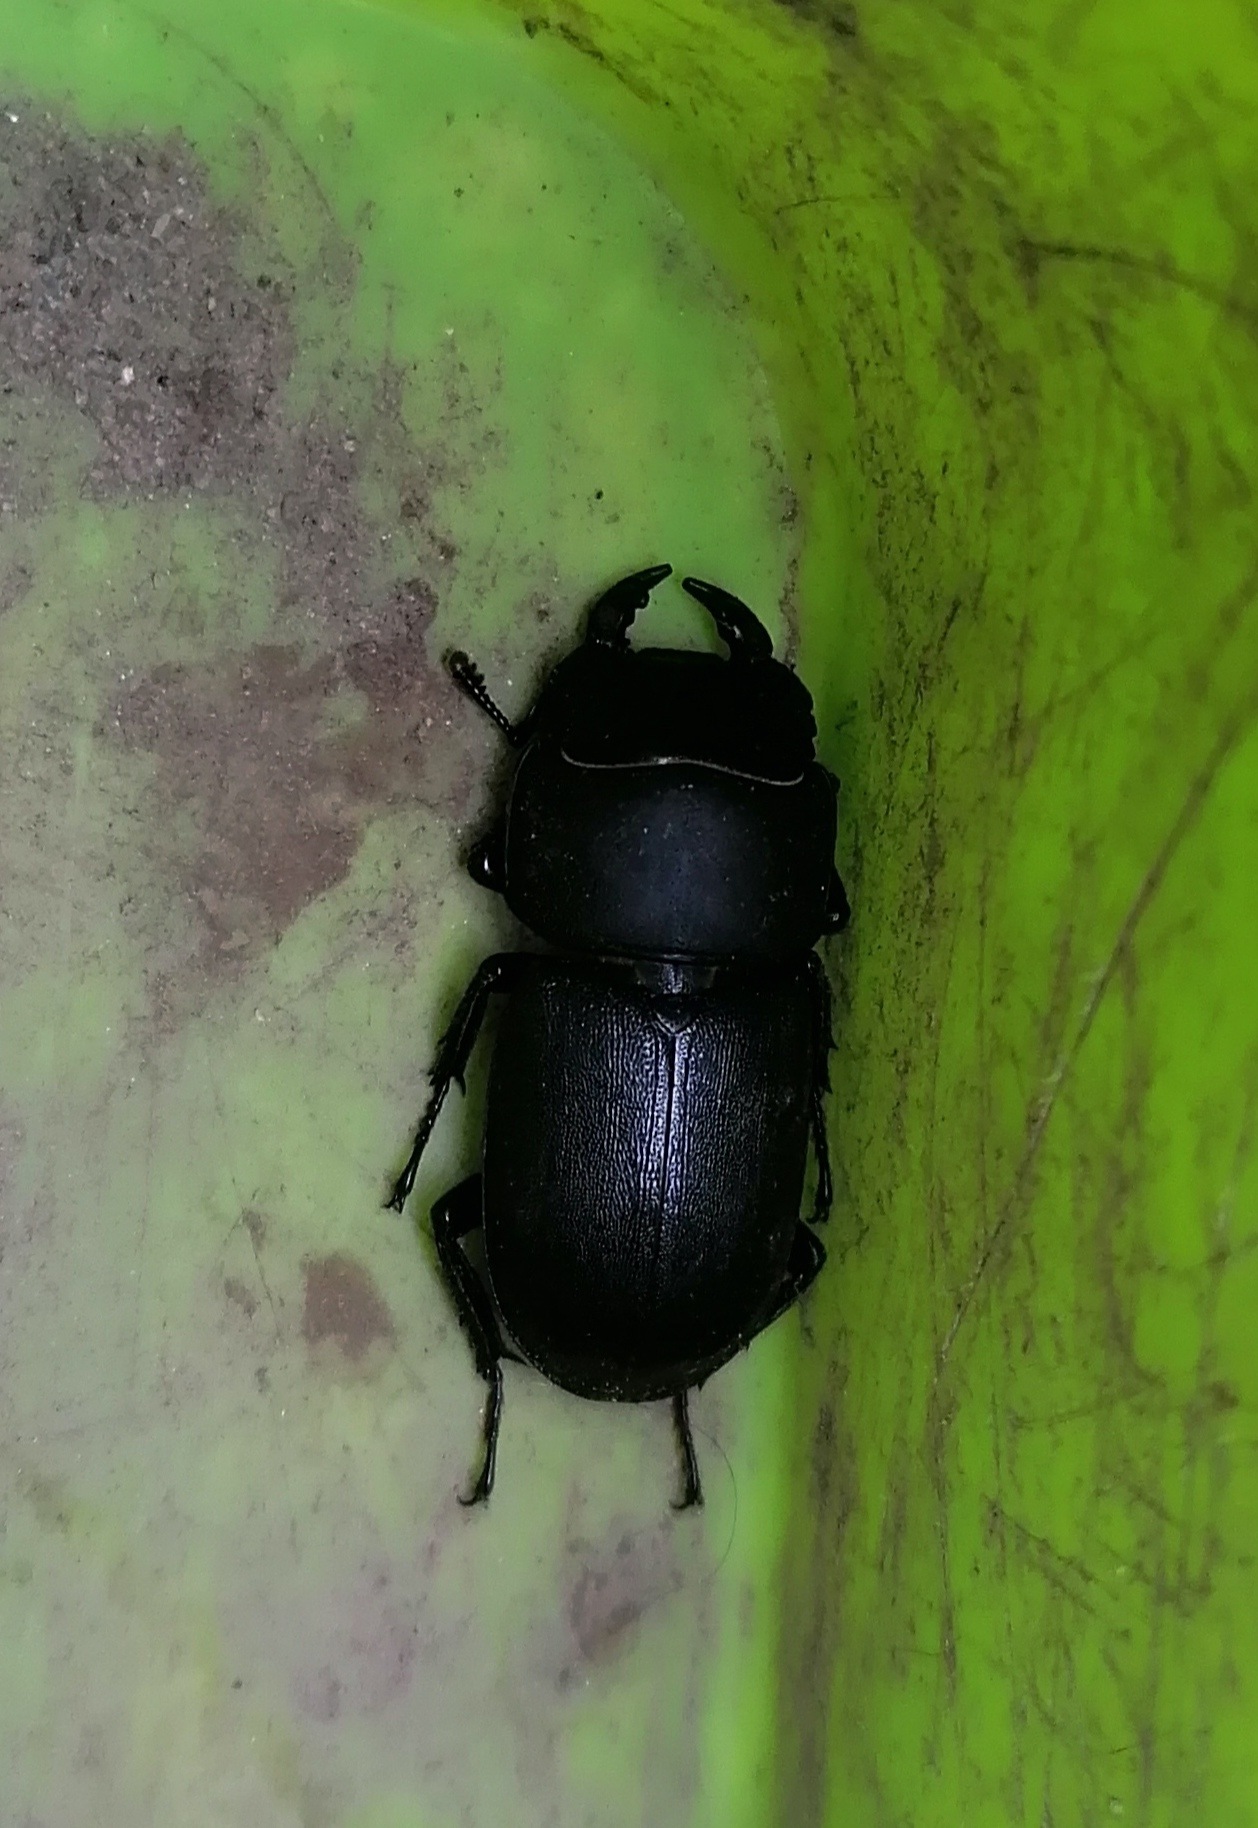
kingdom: Animalia
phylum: Arthropoda
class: Insecta
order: Coleoptera
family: Lucanidae
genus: Dorcus
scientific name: Dorcus parallelipipedus
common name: Bøghjort
